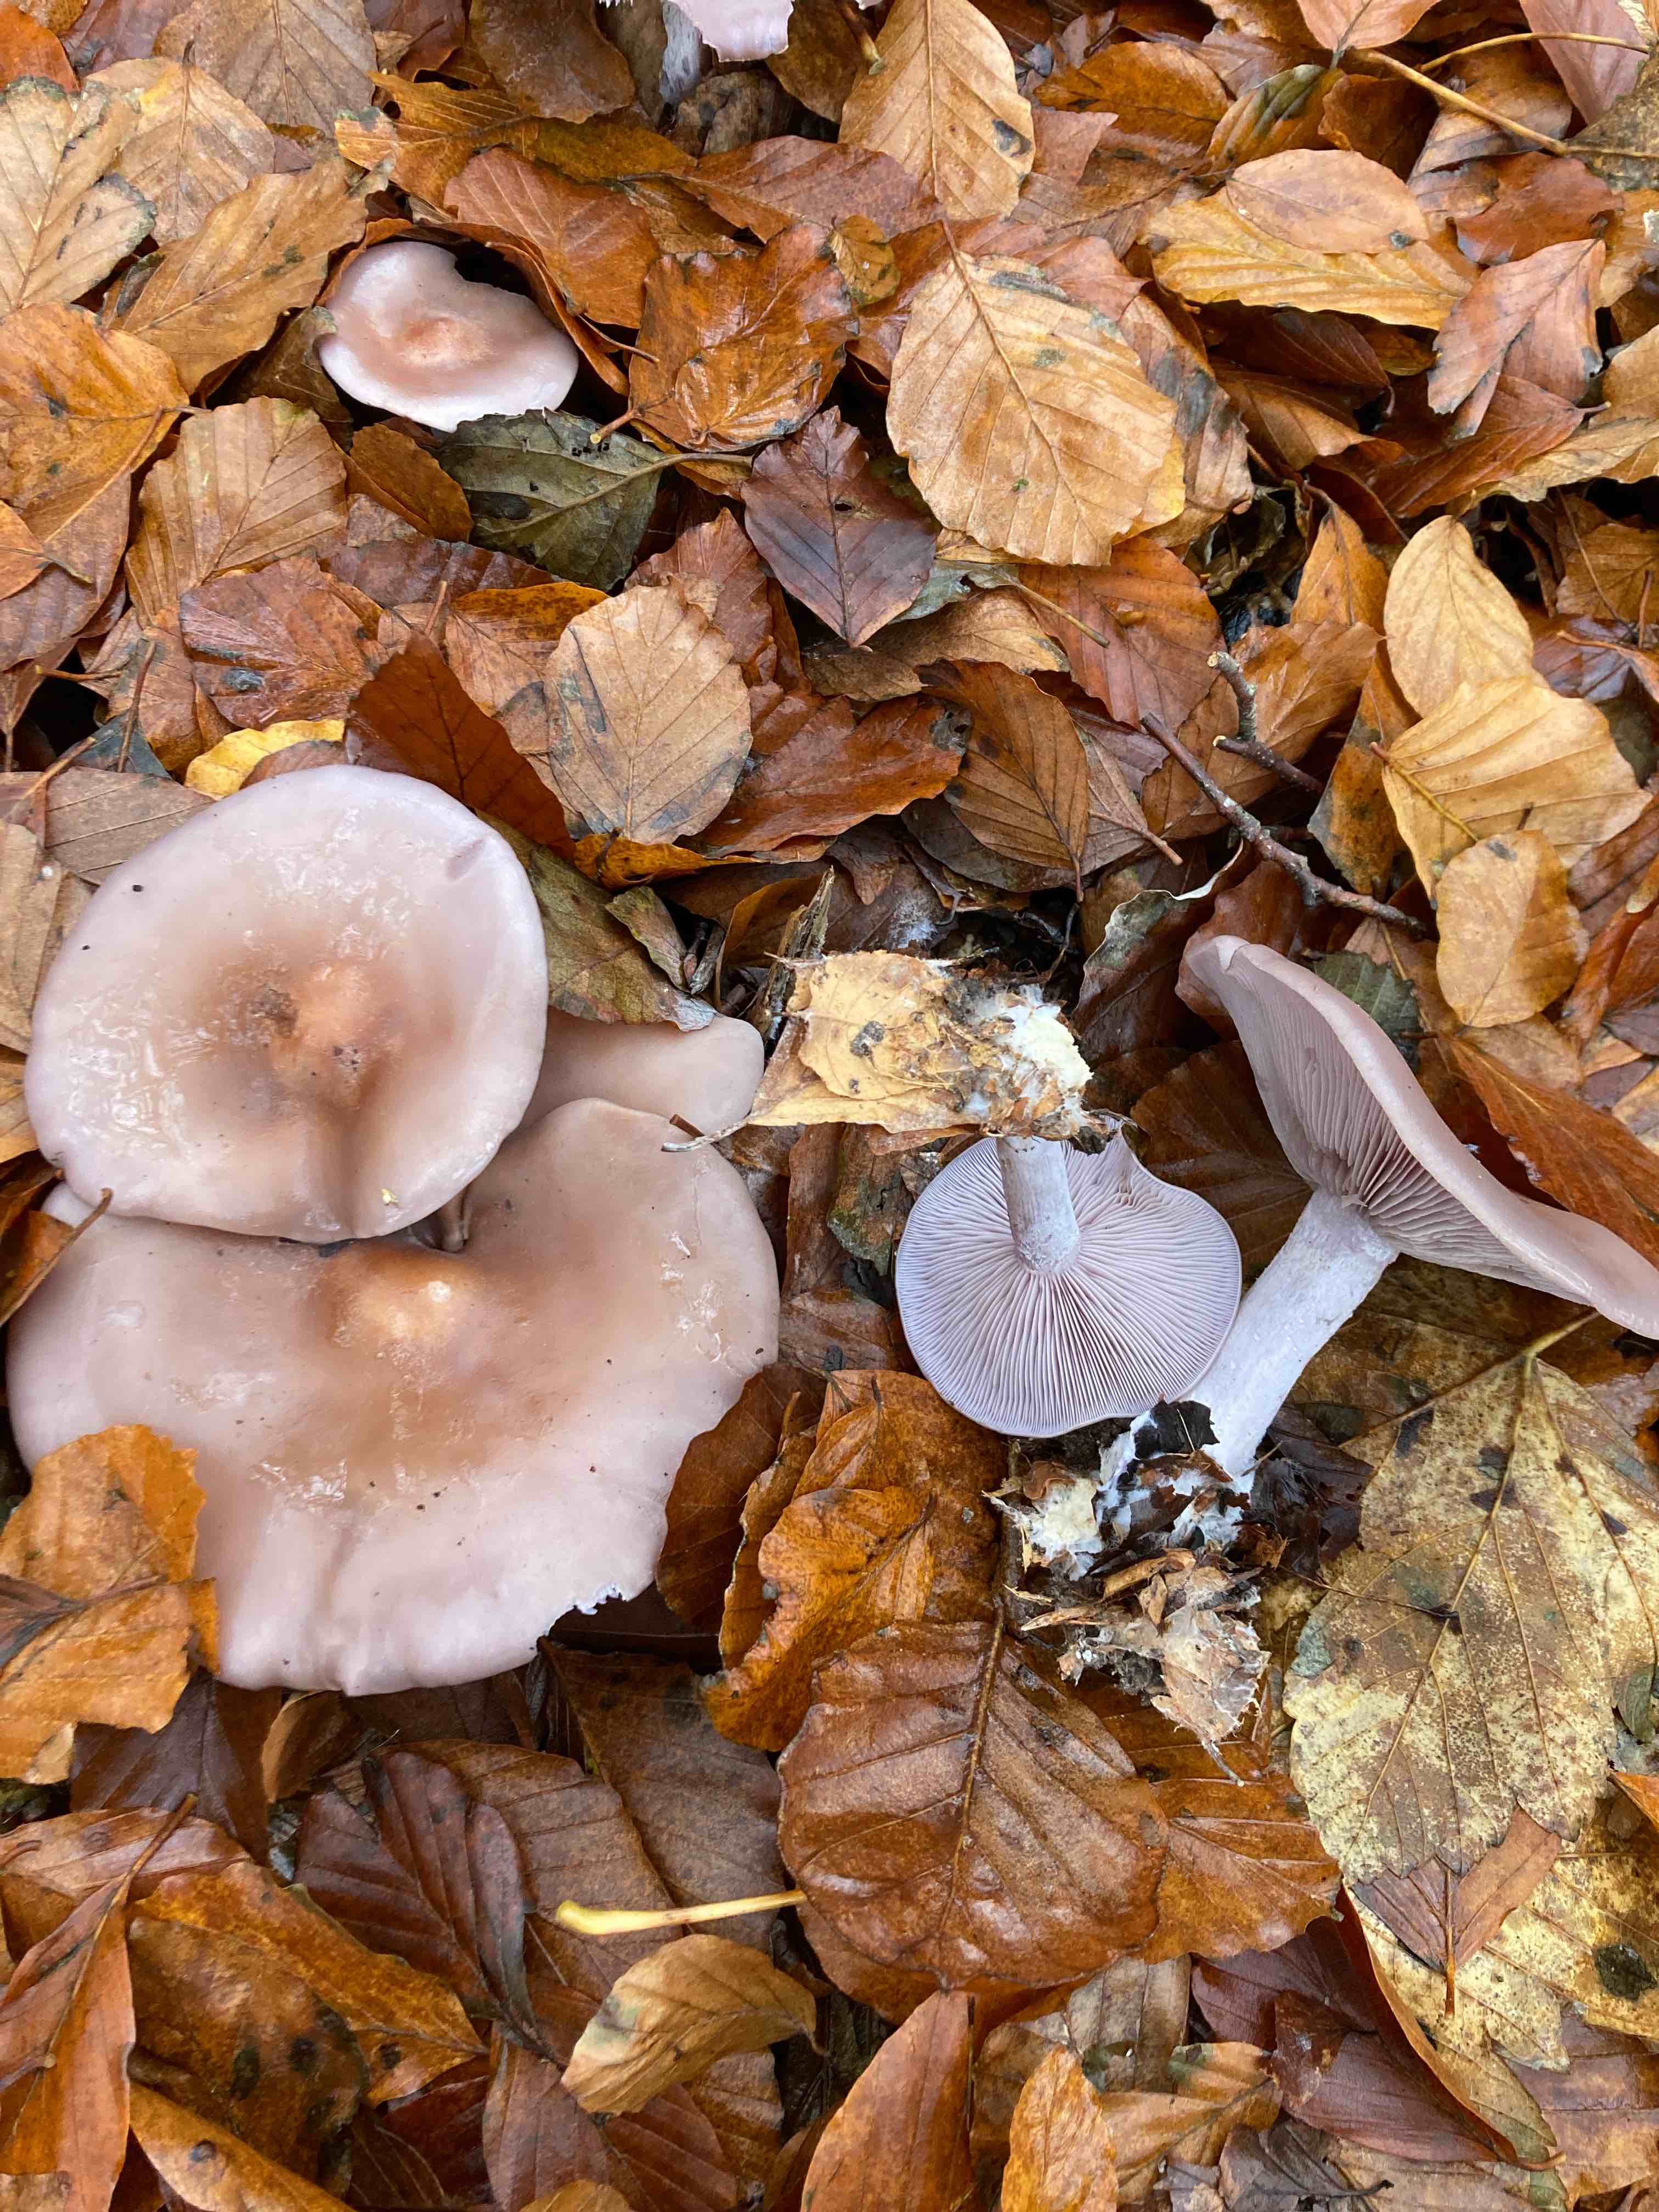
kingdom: Fungi
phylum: Basidiomycota
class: Agaricomycetes
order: Agaricales
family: Tricholomataceae
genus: Lepista
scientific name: Lepista nuda
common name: violet hekseringshat
